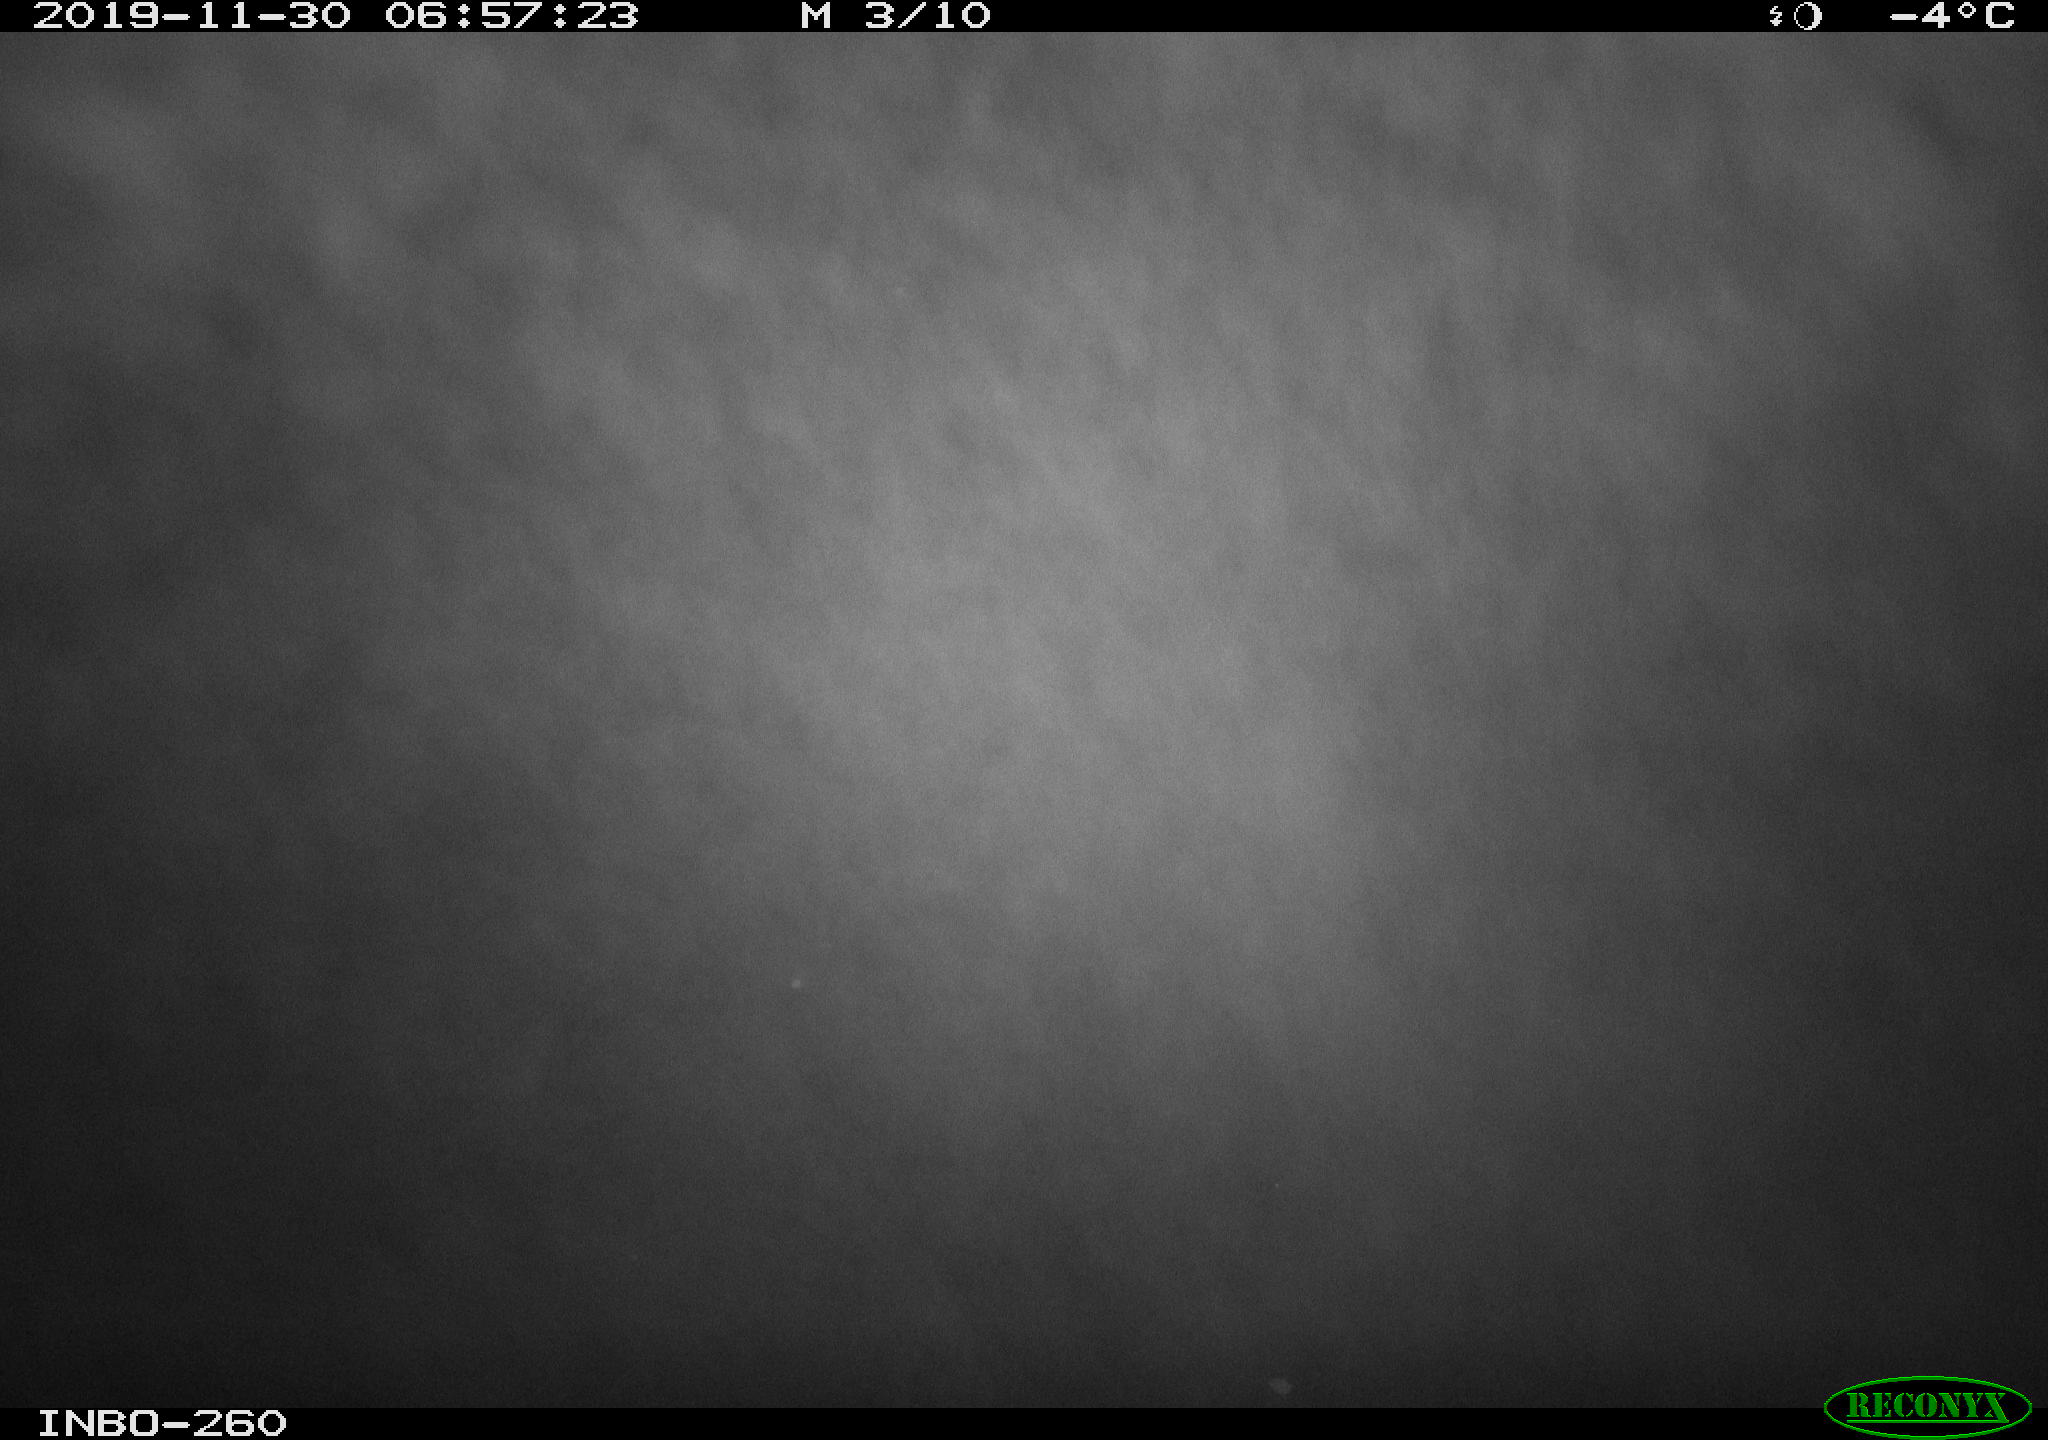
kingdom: Animalia
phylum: Chordata
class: Aves
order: Anseriformes
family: Anatidae
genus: Anas
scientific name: Anas platyrhynchos
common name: Mallard
